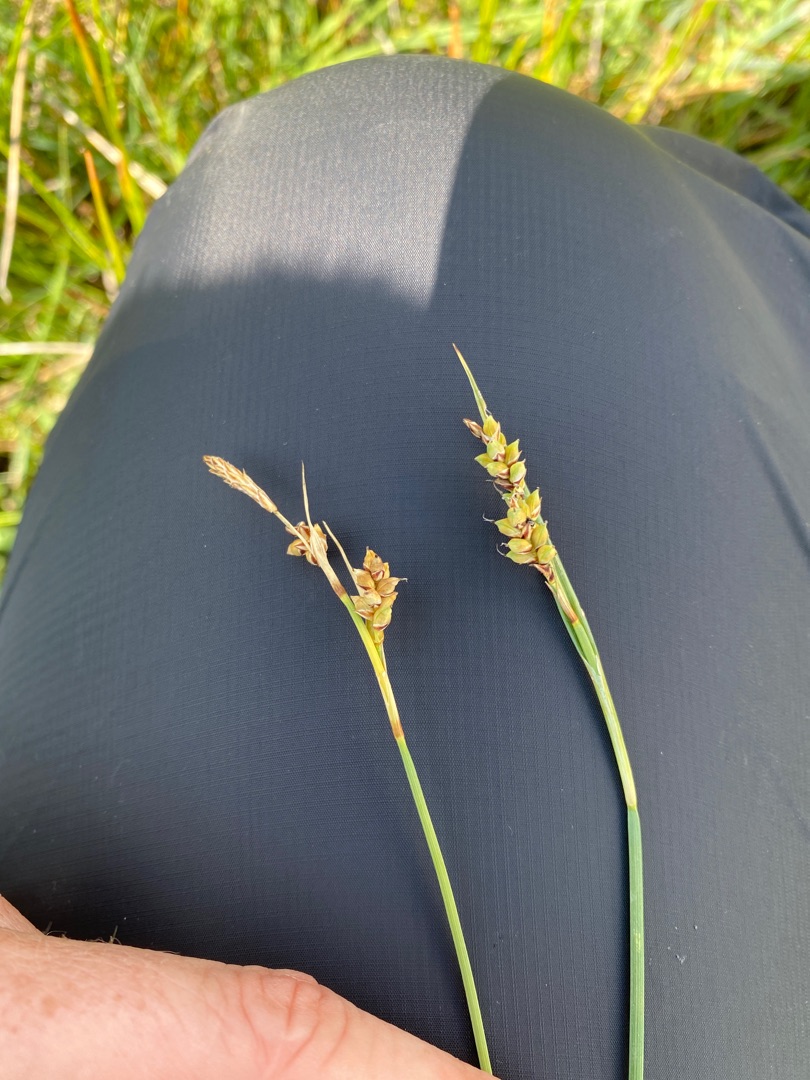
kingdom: Plantae
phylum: Tracheophyta
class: Liliopsida
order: Poales
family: Cyperaceae
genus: Carex
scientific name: Carex panicea
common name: Hirse-star
